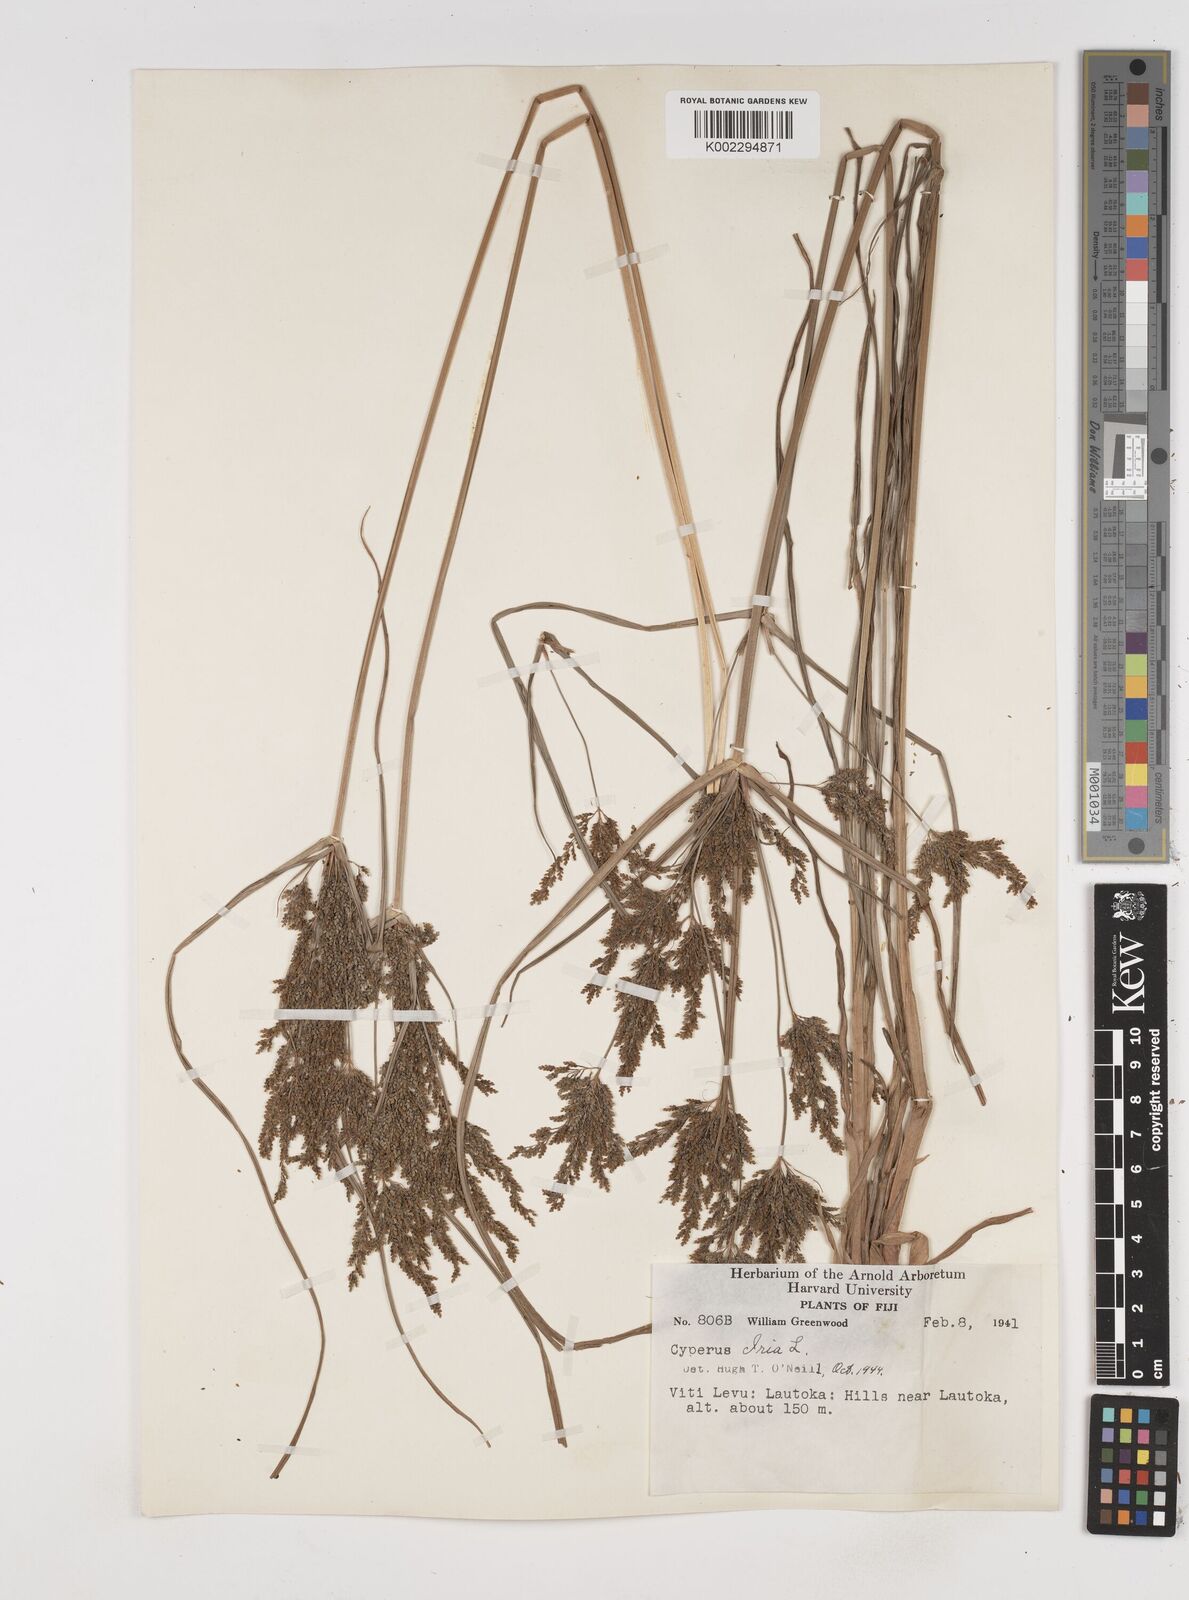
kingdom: Plantae
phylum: Tracheophyta
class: Liliopsida
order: Poales
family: Cyperaceae
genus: Cyperus
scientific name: Cyperus iria
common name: Ricefield flatsedge
